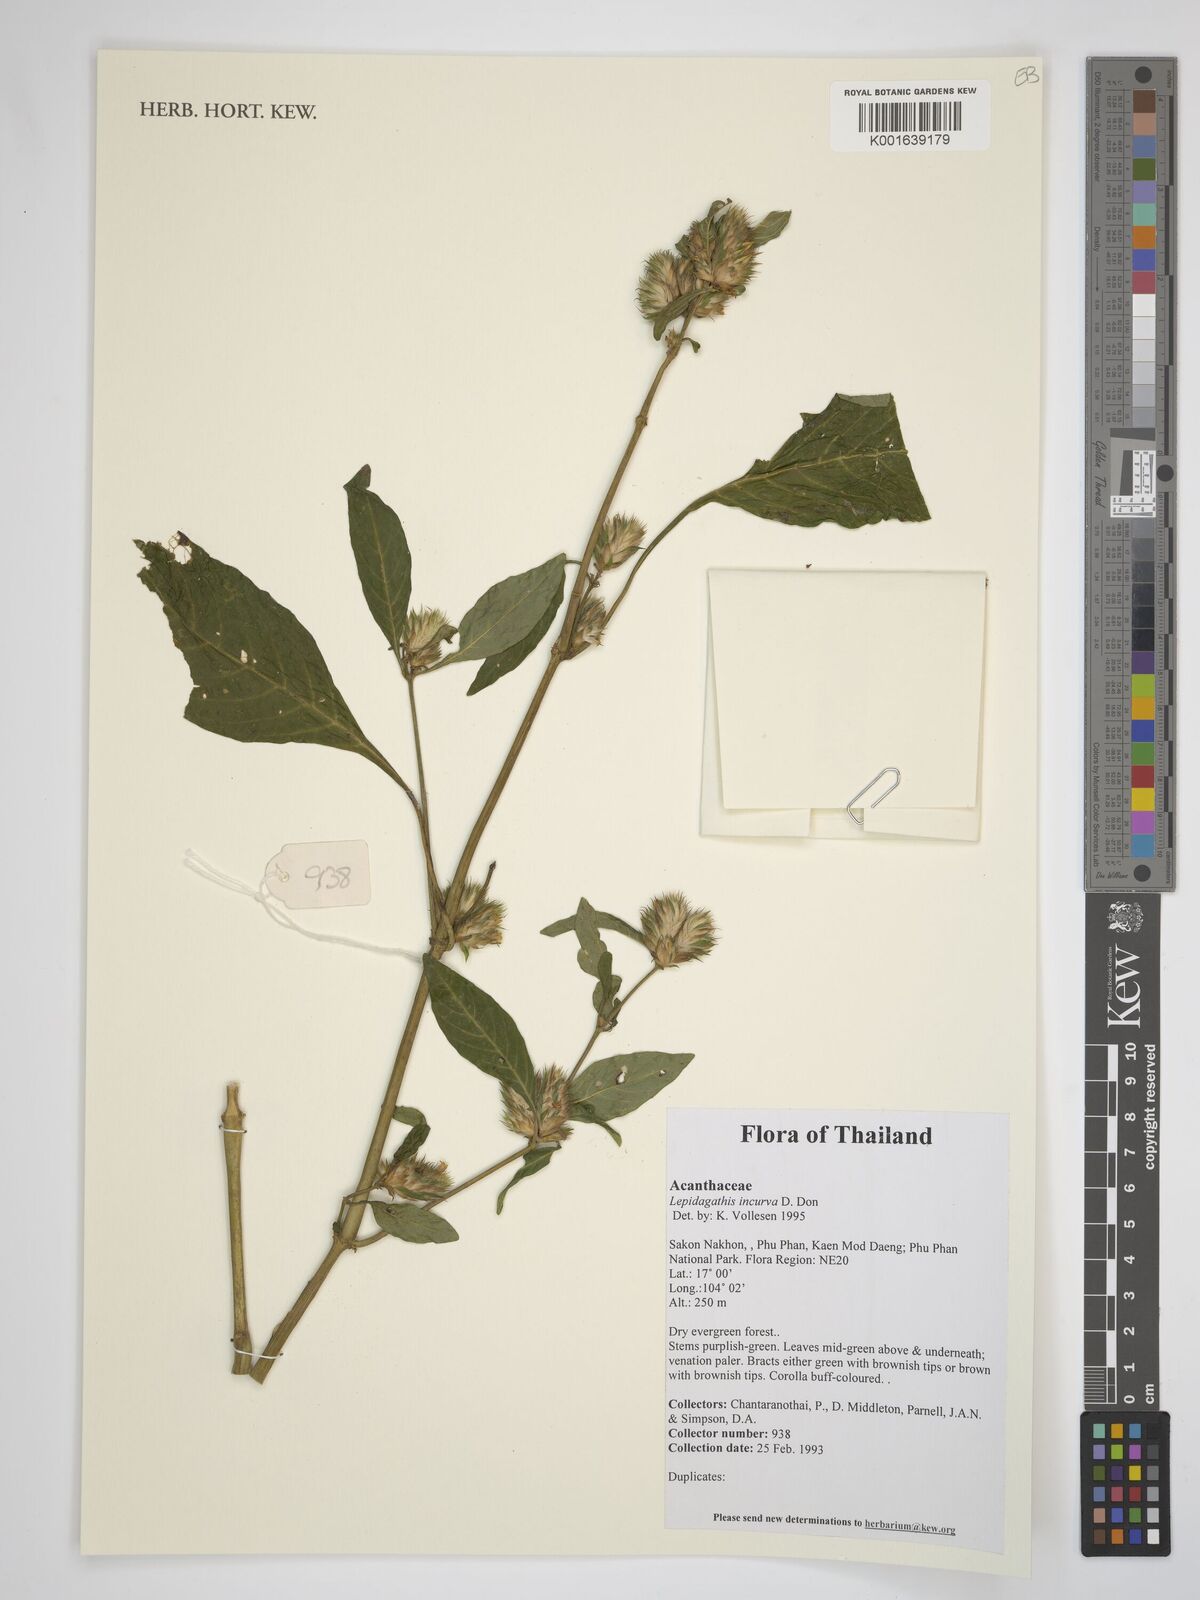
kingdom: Plantae
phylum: Tracheophyta
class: Magnoliopsida
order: Lamiales
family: Acanthaceae
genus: Lepidagathis
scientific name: Lepidagathis incurva
